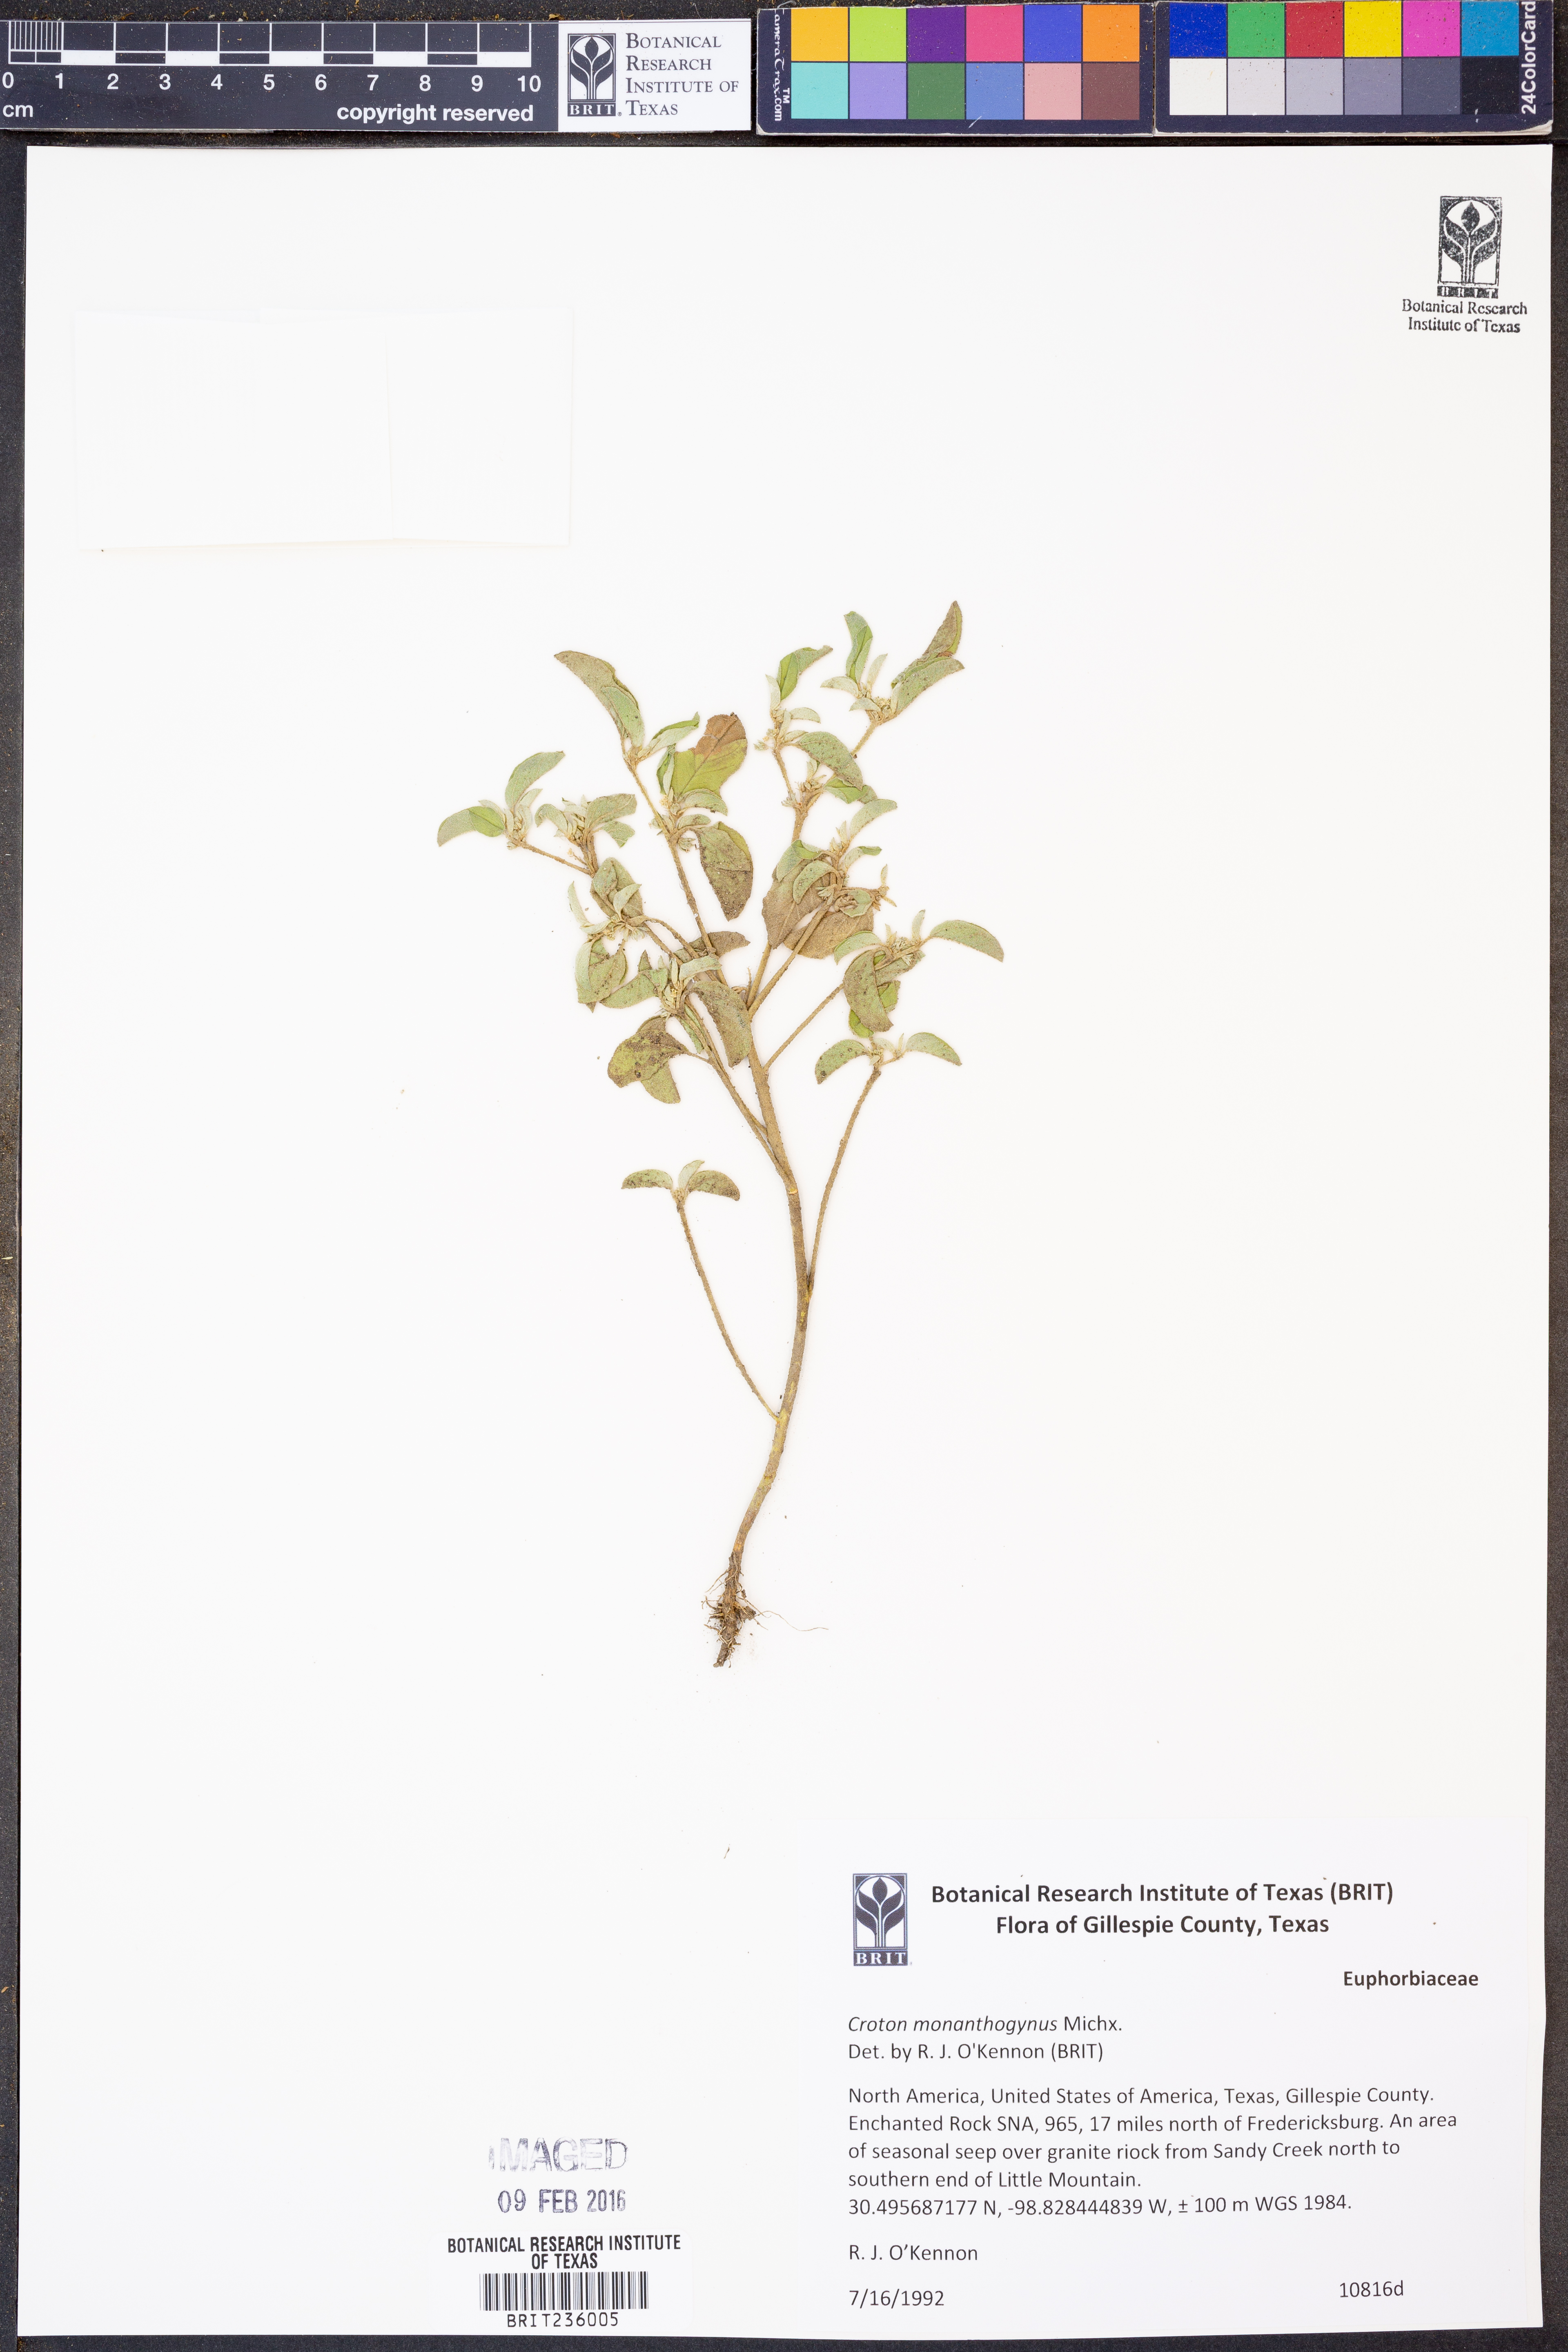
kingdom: Plantae
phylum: Tracheophyta
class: Magnoliopsida
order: Malpighiales
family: Euphorbiaceae
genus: Croton
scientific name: Croton monanthogynus
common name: One-seed croton
